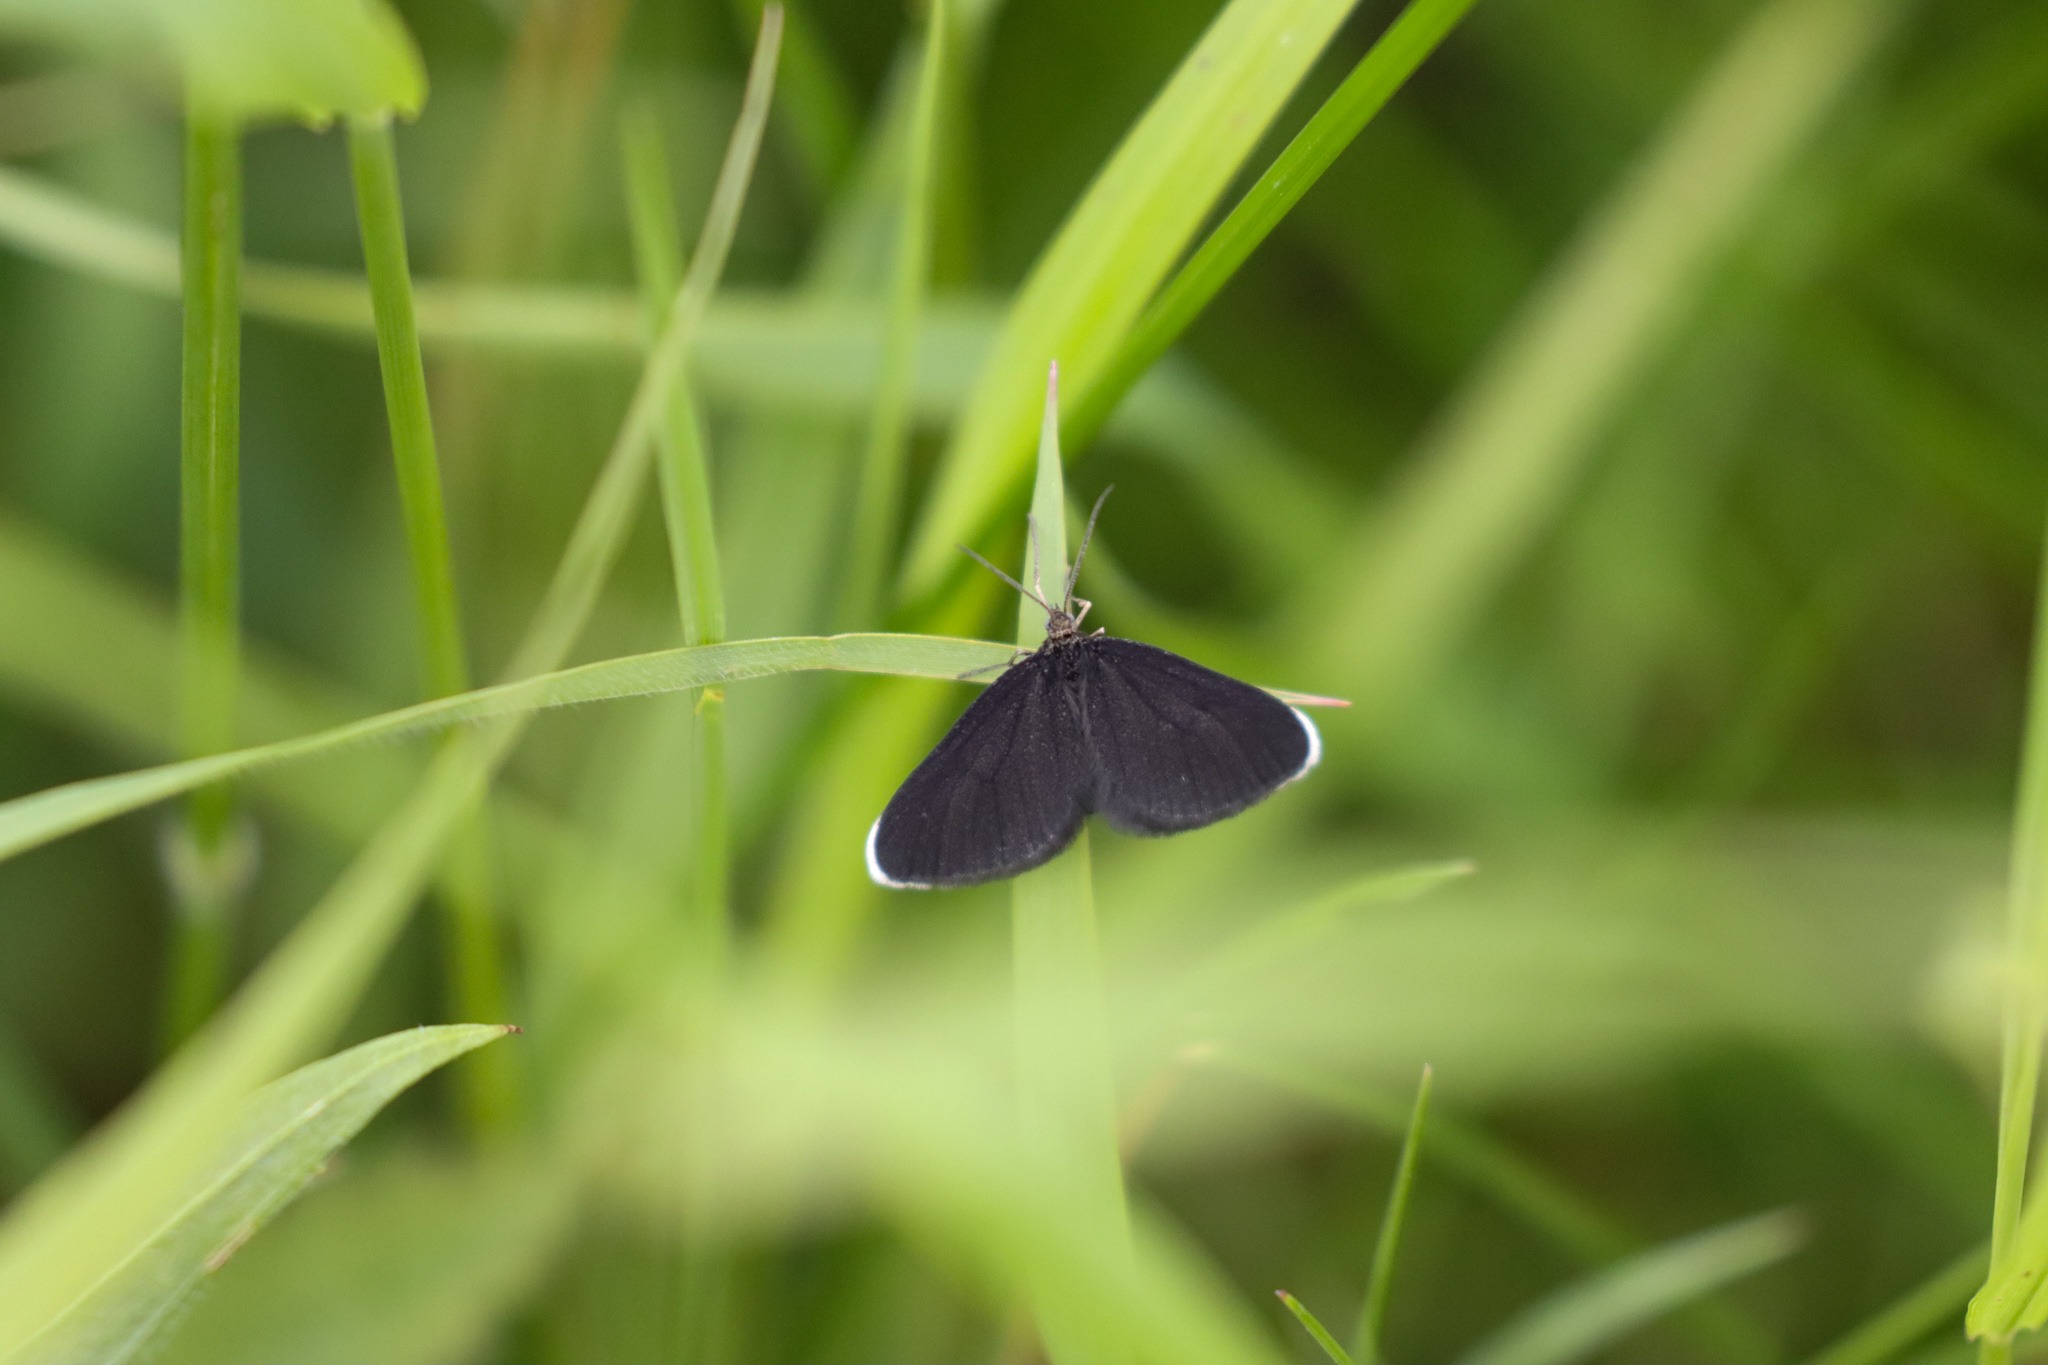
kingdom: Animalia
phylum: Arthropoda
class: Insecta
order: Lepidoptera
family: Geometridae
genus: Odezia
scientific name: Odezia atrata
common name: Sort måler
